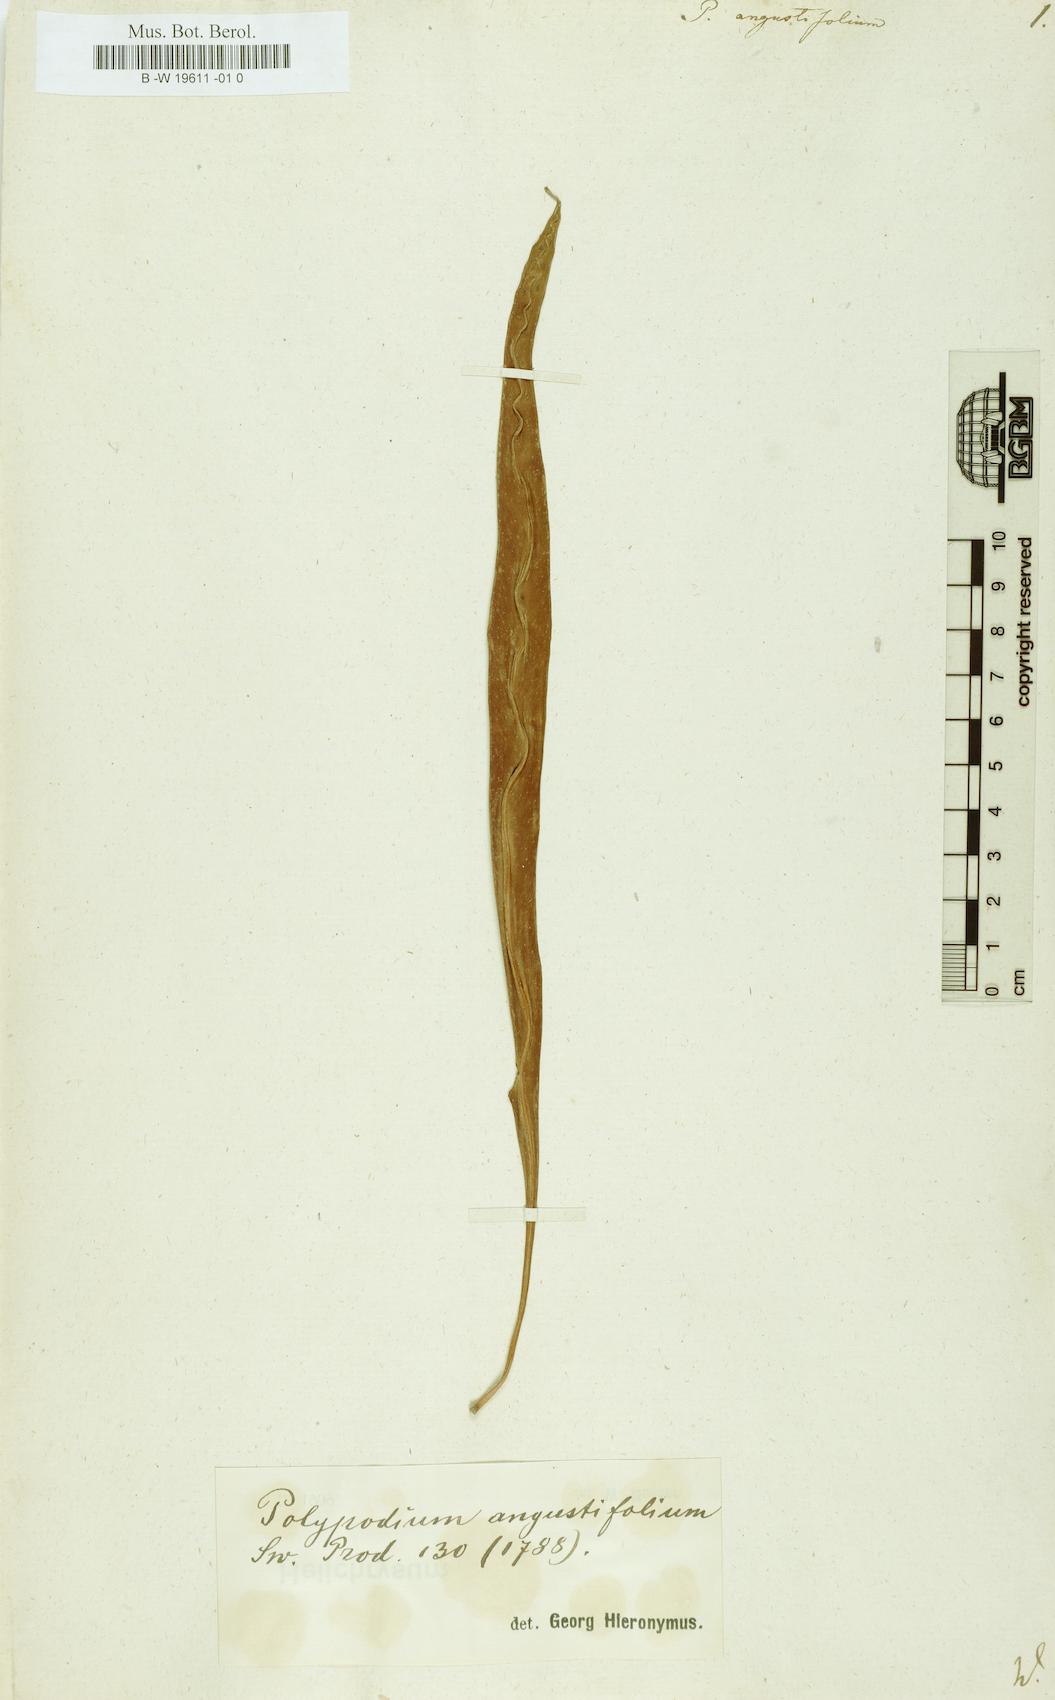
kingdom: Plantae
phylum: Tracheophyta
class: Polypodiopsida
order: Polypodiales
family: Polypodiaceae
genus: Campyloneurum
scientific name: Campyloneurum angustifolium
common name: Narrow-leaf strap fern
